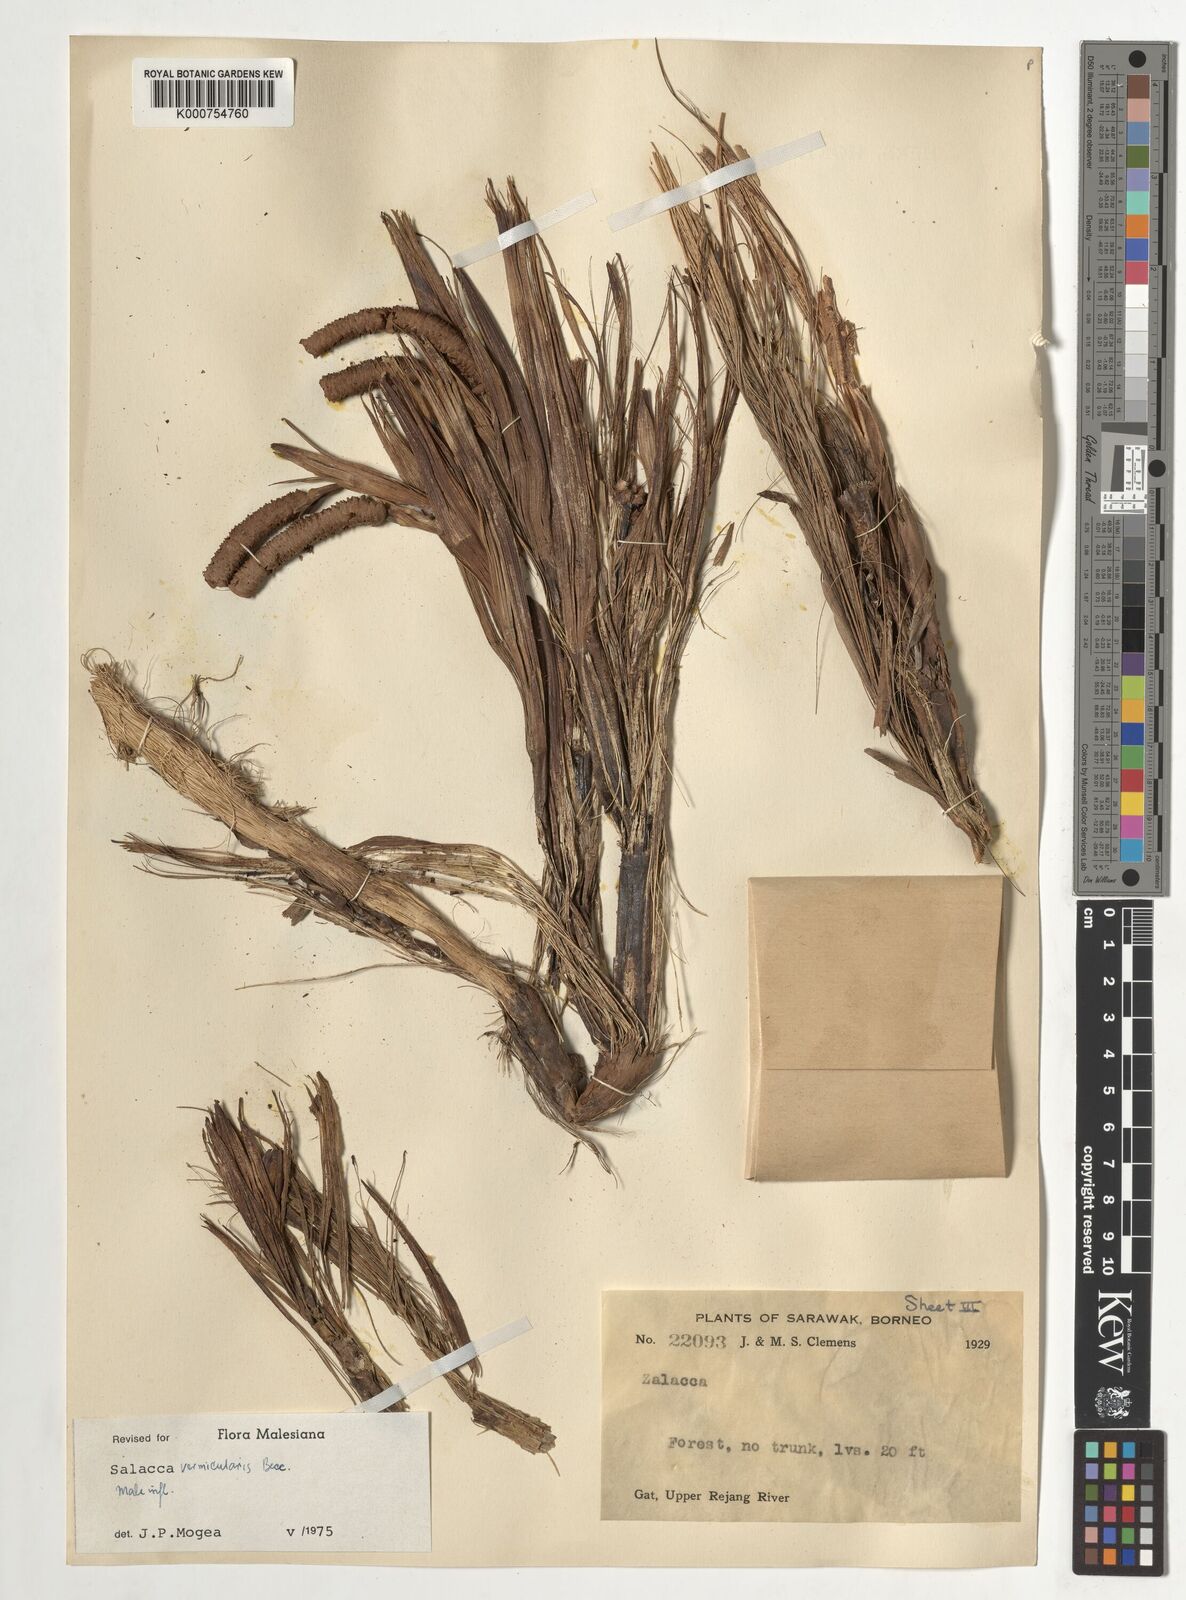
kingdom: Plantae
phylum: Tracheophyta
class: Liliopsida
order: Arecales
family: Arecaceae
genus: Salacca
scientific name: Salacca vermicularis
